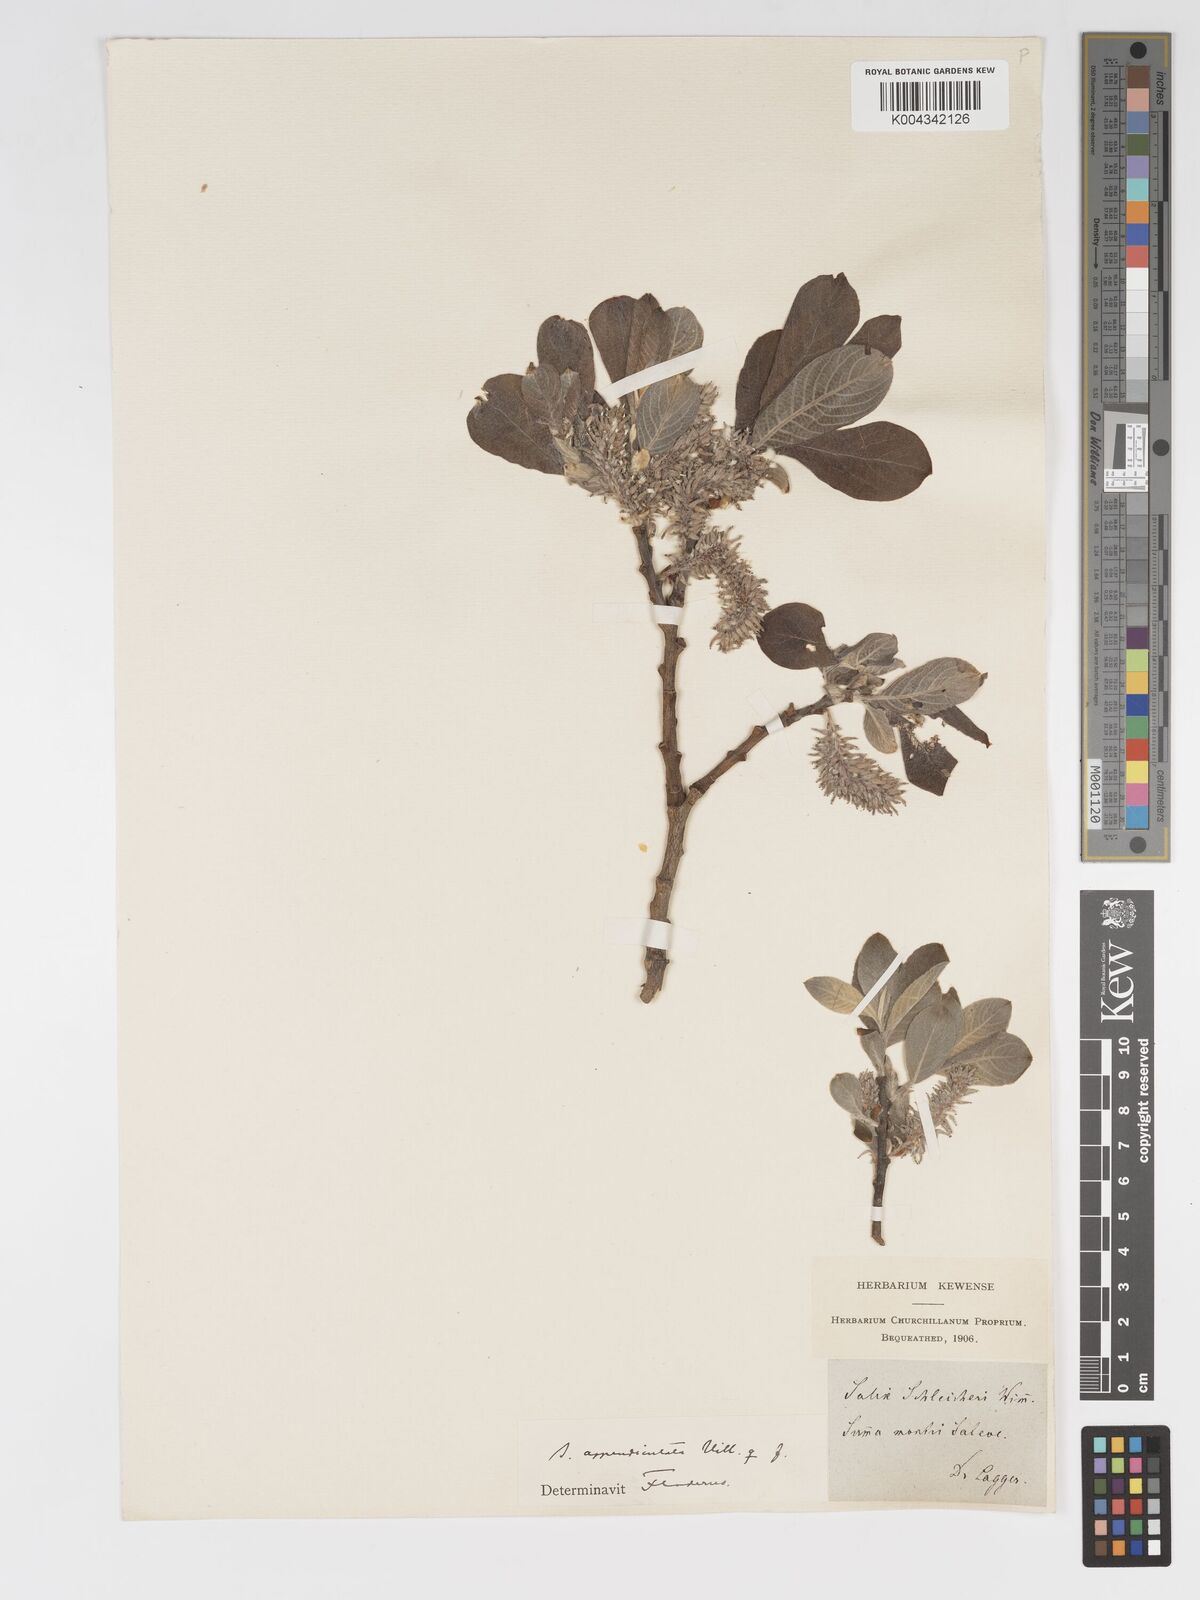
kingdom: Plantae
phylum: Tracheophyta
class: Magnoliopsida
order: Malpighiales
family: Salicaceae
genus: Salix
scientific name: Salix laggeri
